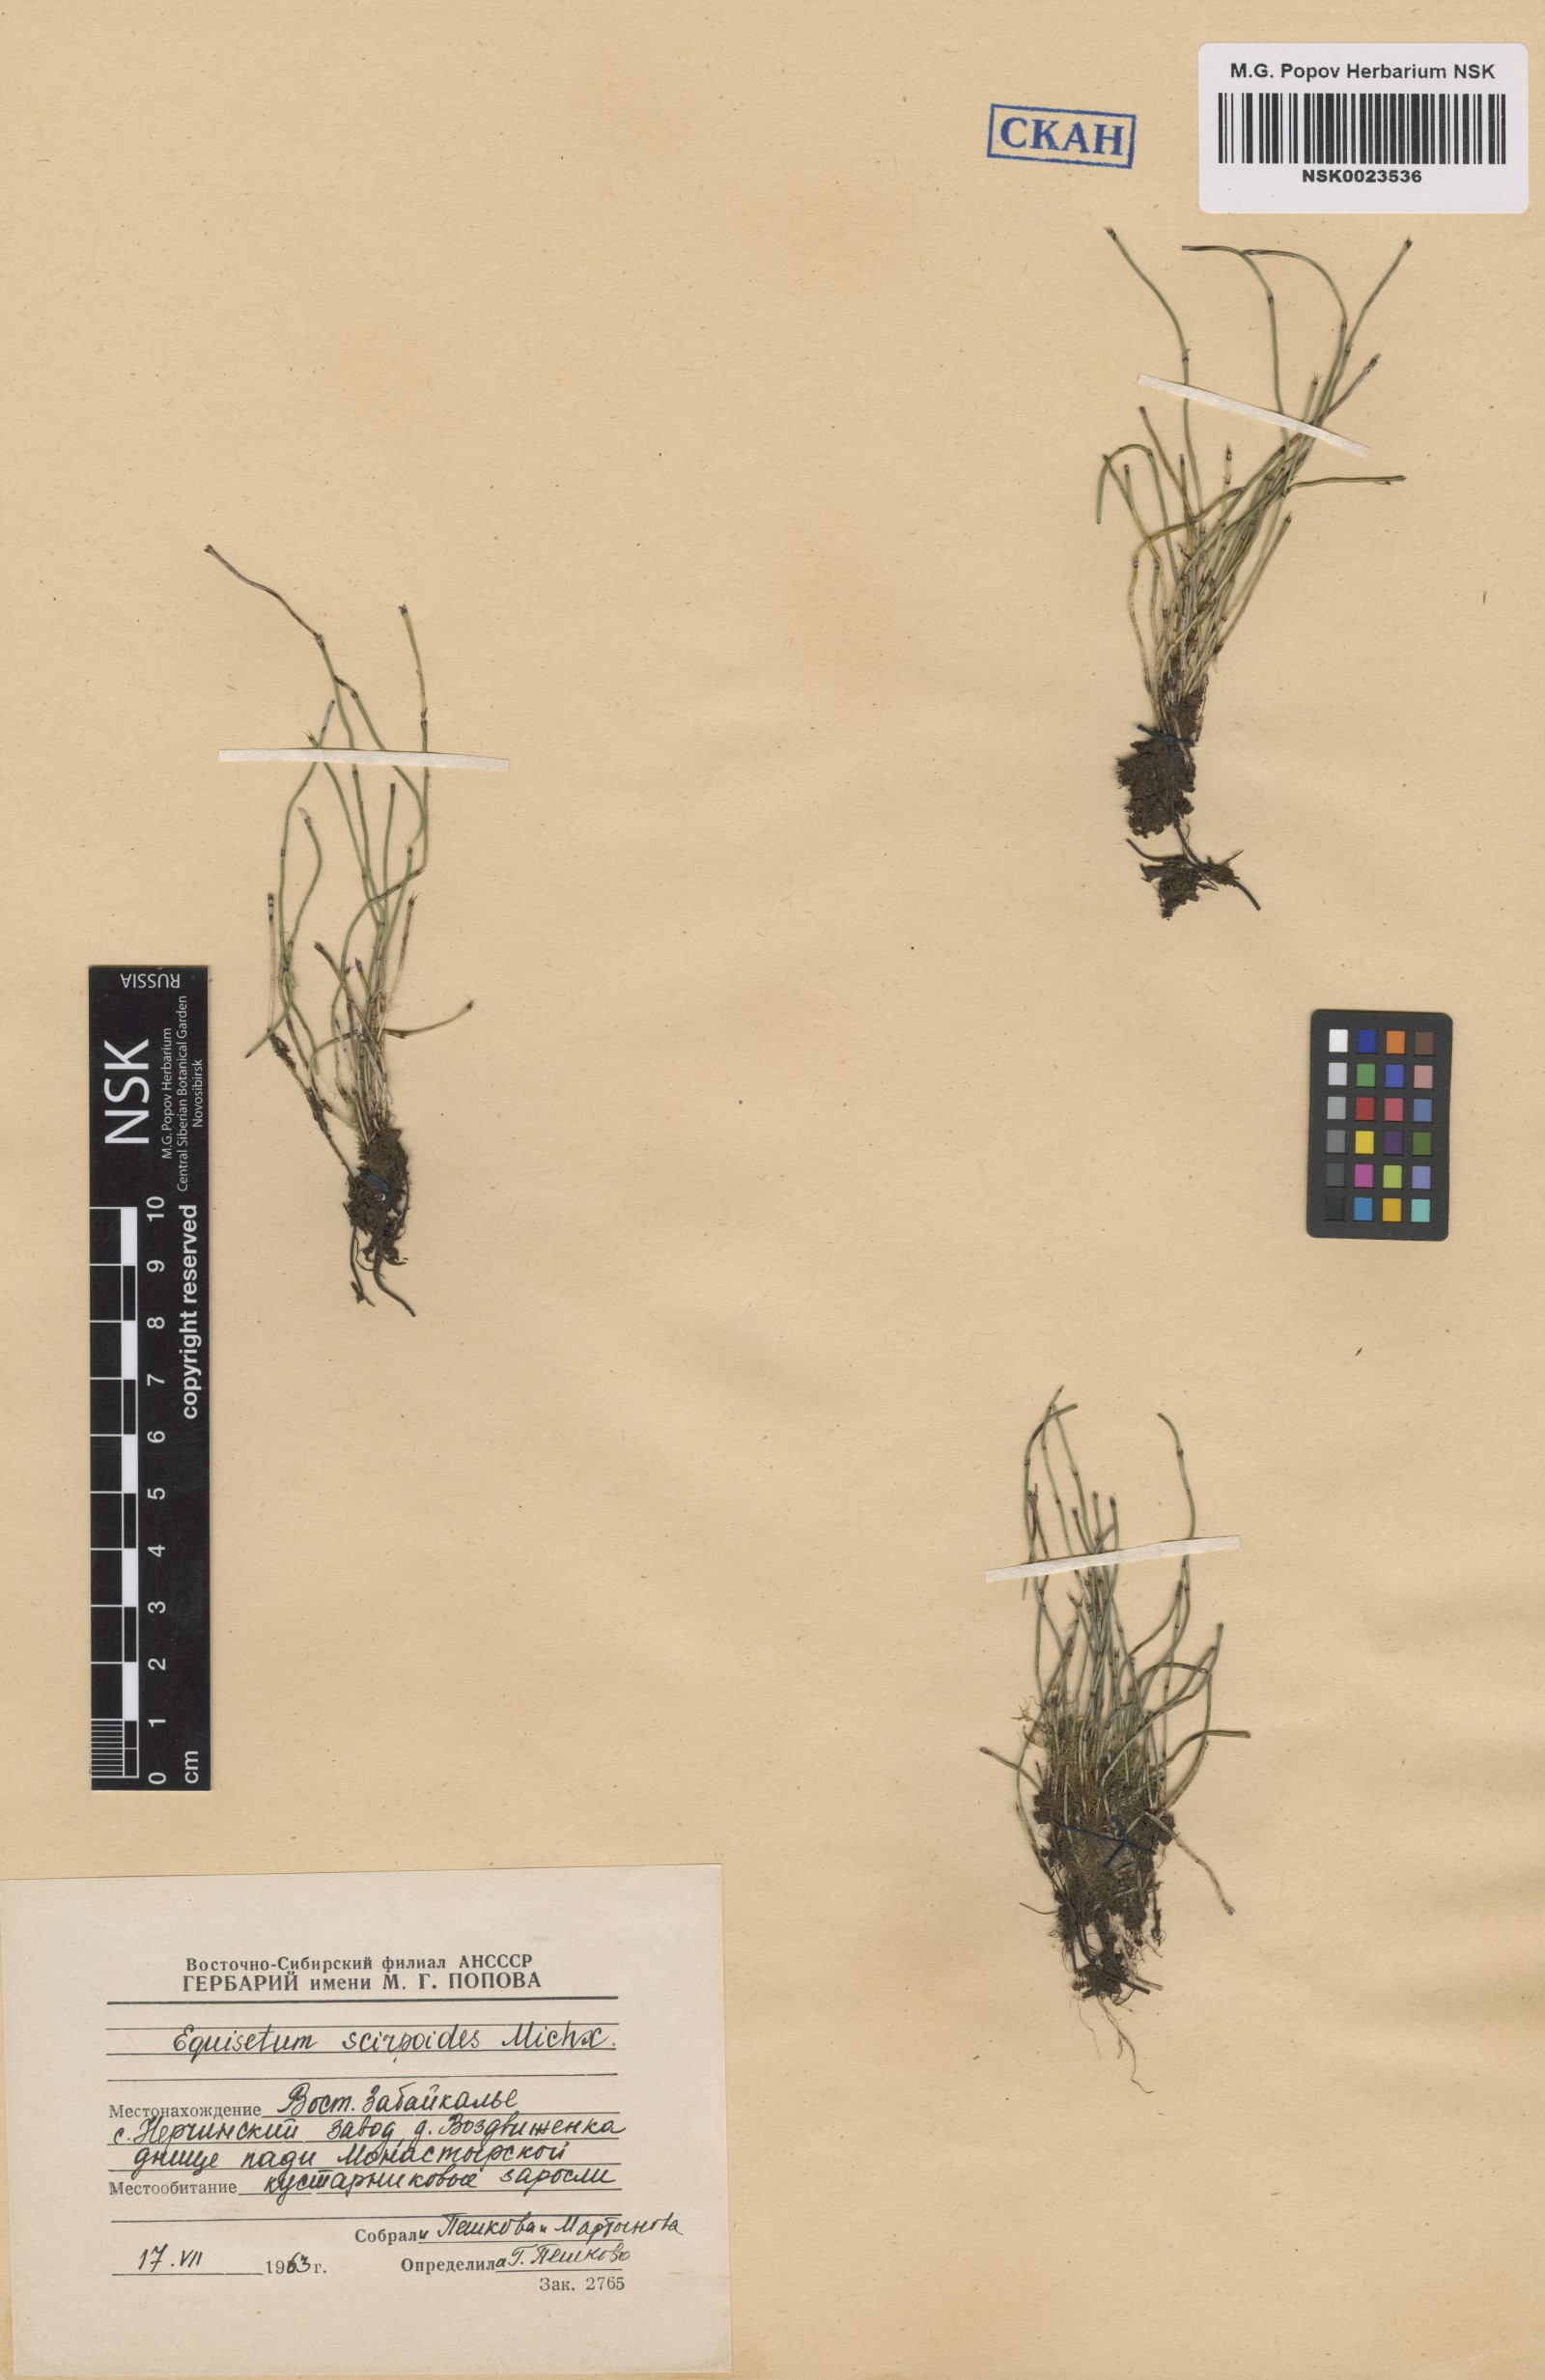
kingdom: Plantae
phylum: Tracheophyta
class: Polypodiopsida
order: Equisetales
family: Equisetaceae
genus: Equisetum
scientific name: Equisetum scirpoides
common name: Delicate horsetail
